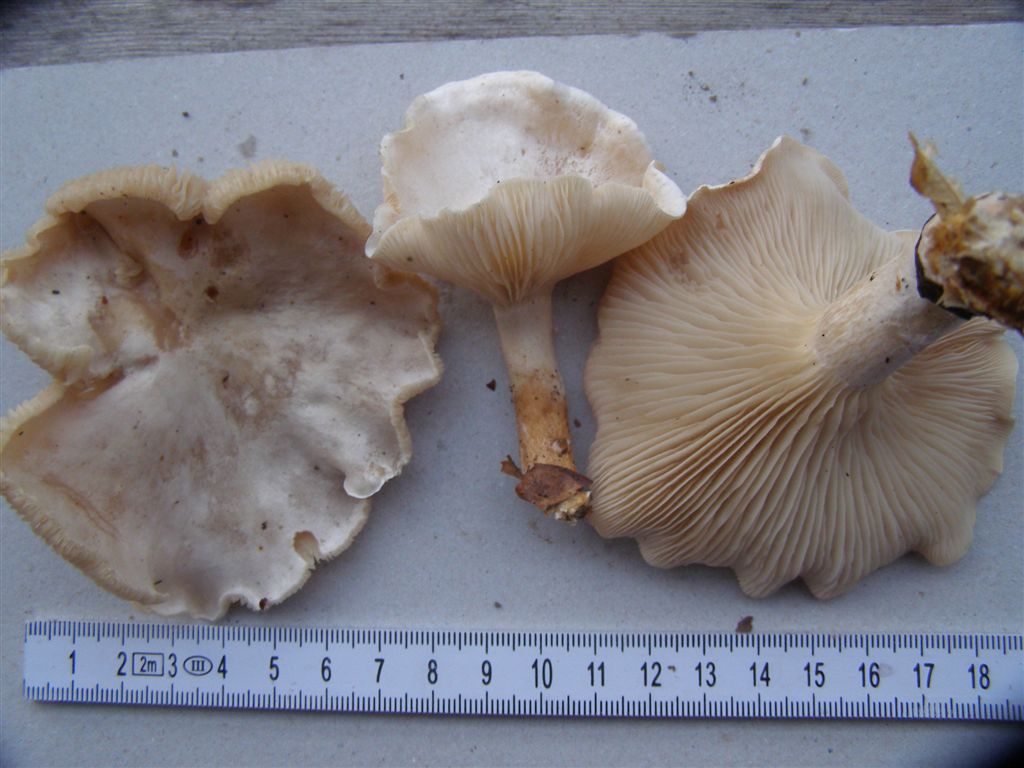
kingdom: Fungi
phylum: Basidiomycota
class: Agaricomycetes
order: Agaricales
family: Tricholomataceae
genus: Clitocybe
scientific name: Clitocybe phyllophila
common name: løv-tragthat
